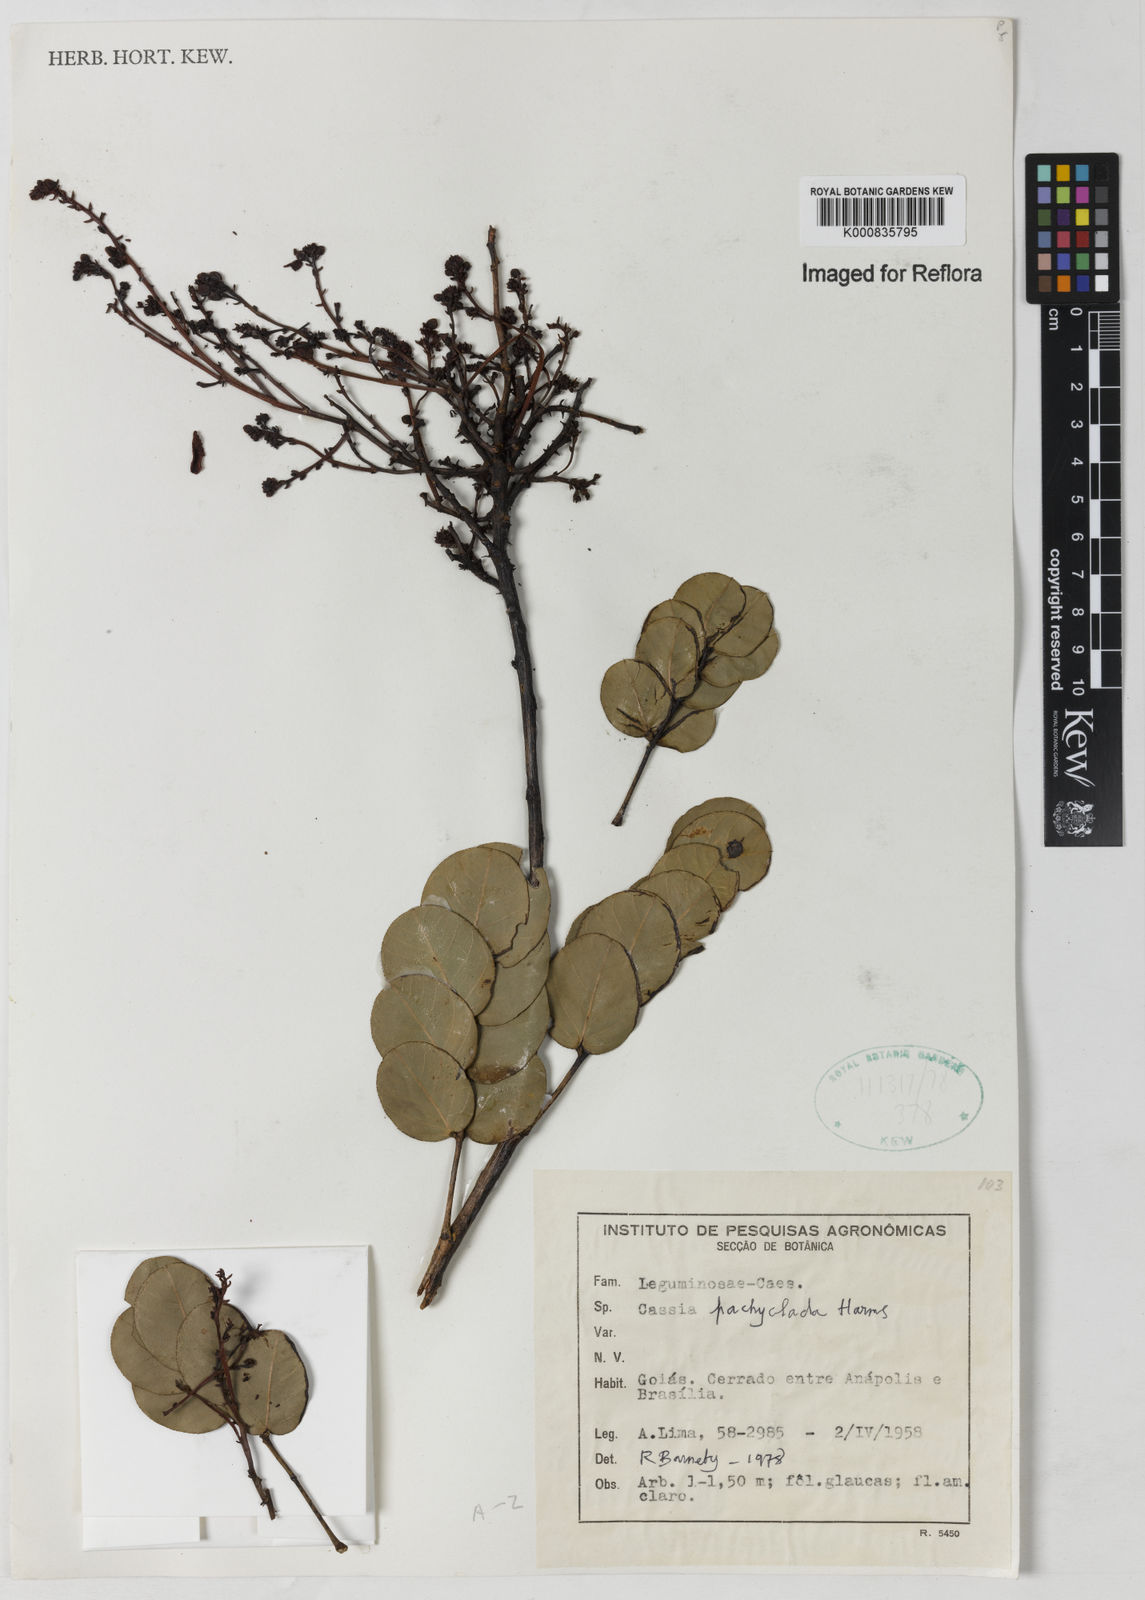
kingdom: Plantae
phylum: Tracheophyta
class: Magnoliopsida
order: Fabales
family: Fabaceae
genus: Chamaecrista
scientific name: Chamaecrista
